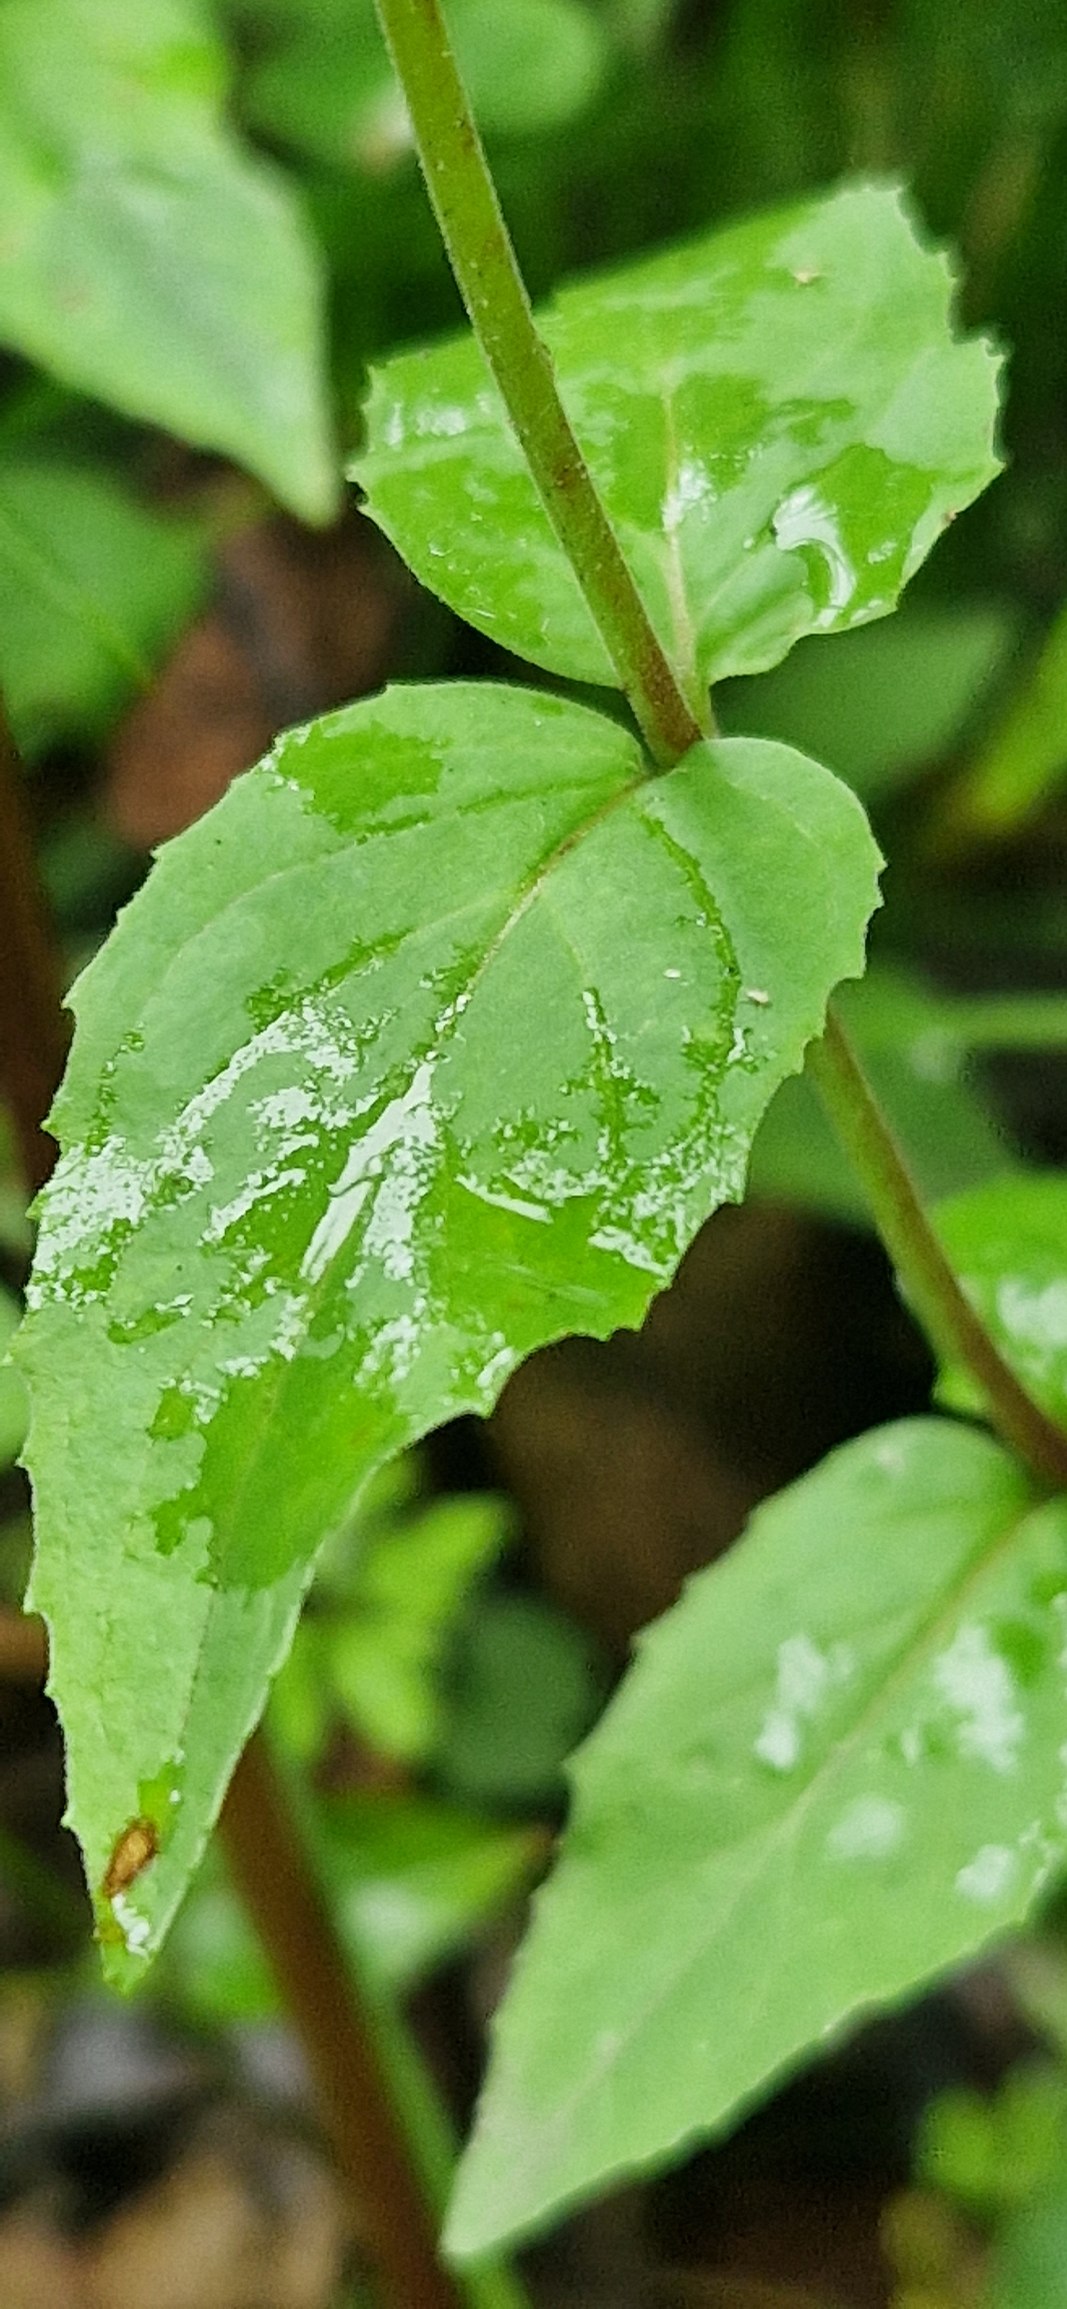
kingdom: Plantae
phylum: Tracheophyta
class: Magnoliopsida
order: Myrtales
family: Onagraceae
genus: Epilobium
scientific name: Epilobium montanum
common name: Glat dueurt
